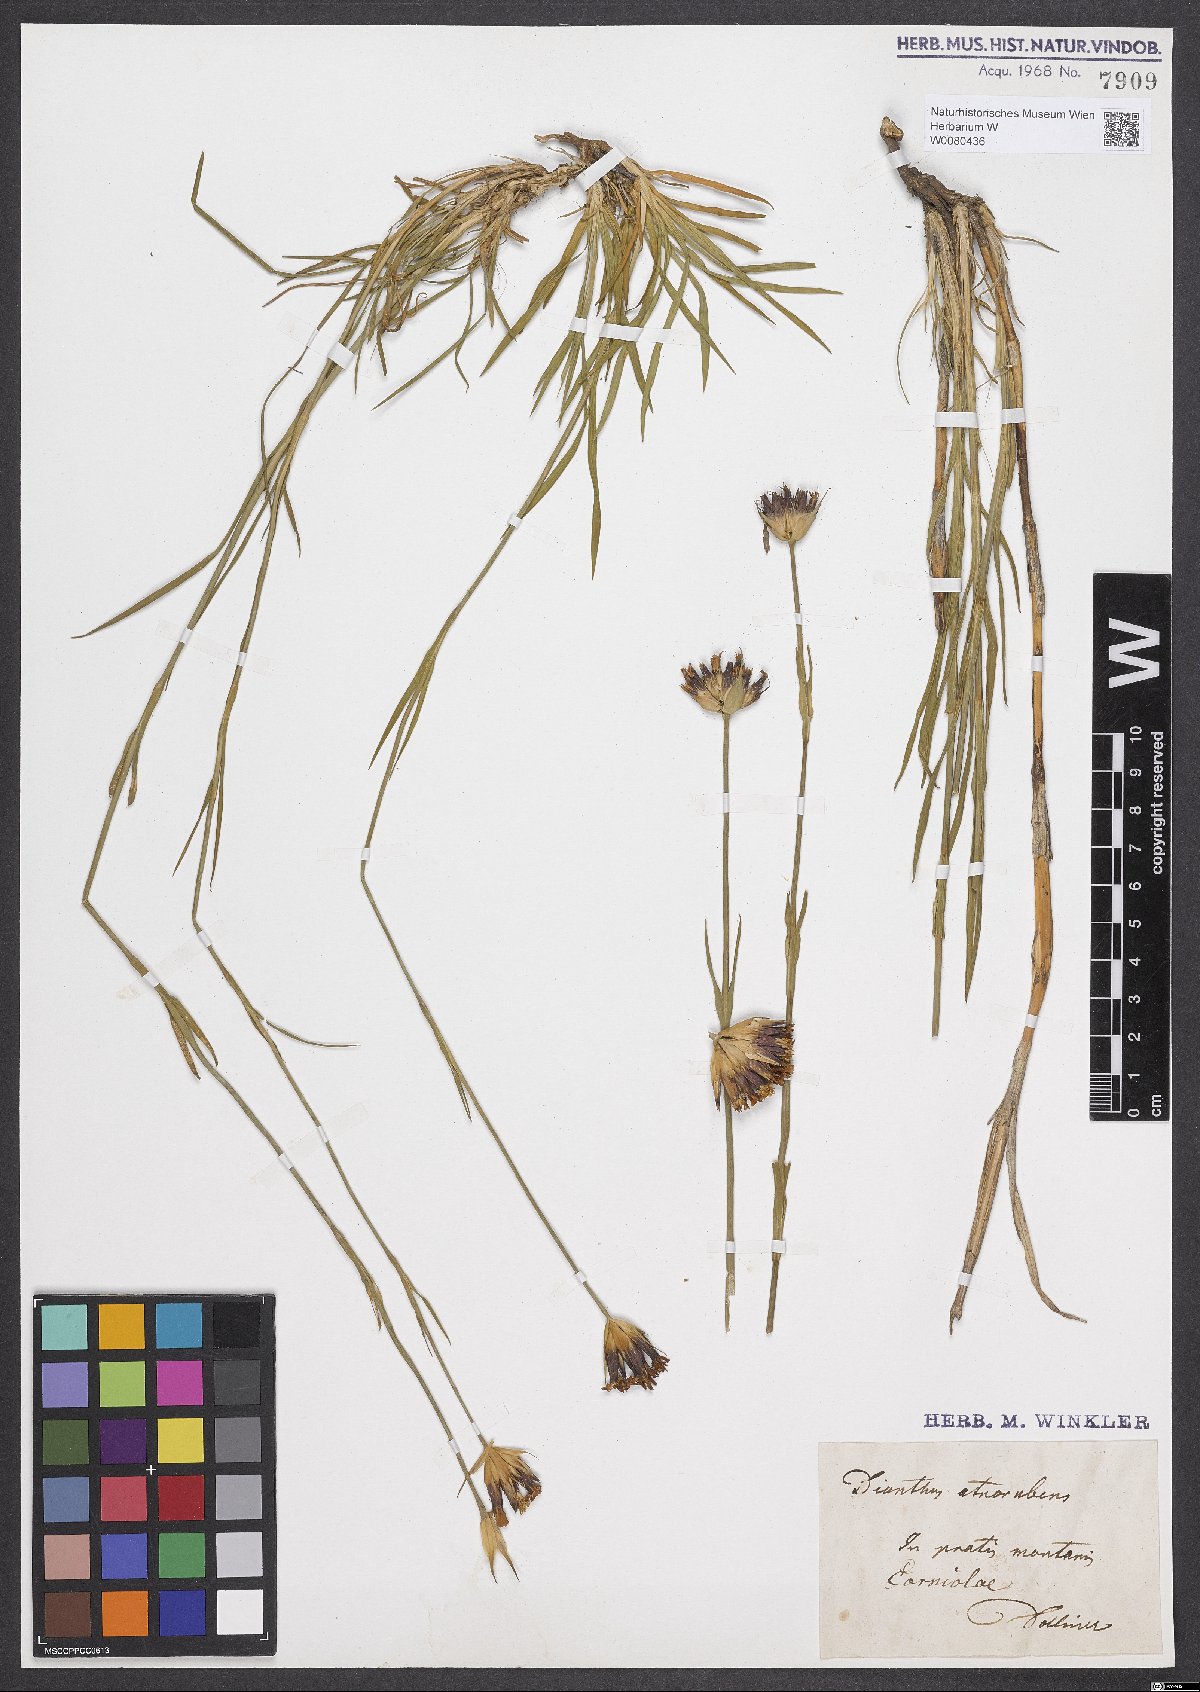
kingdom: Plantae
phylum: Tracheophyta
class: Magnoliopsida
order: Caryophyllales
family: Caryophyllaceae
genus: Dianthus
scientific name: Dianthus carthusianorum
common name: Carthusian pink
